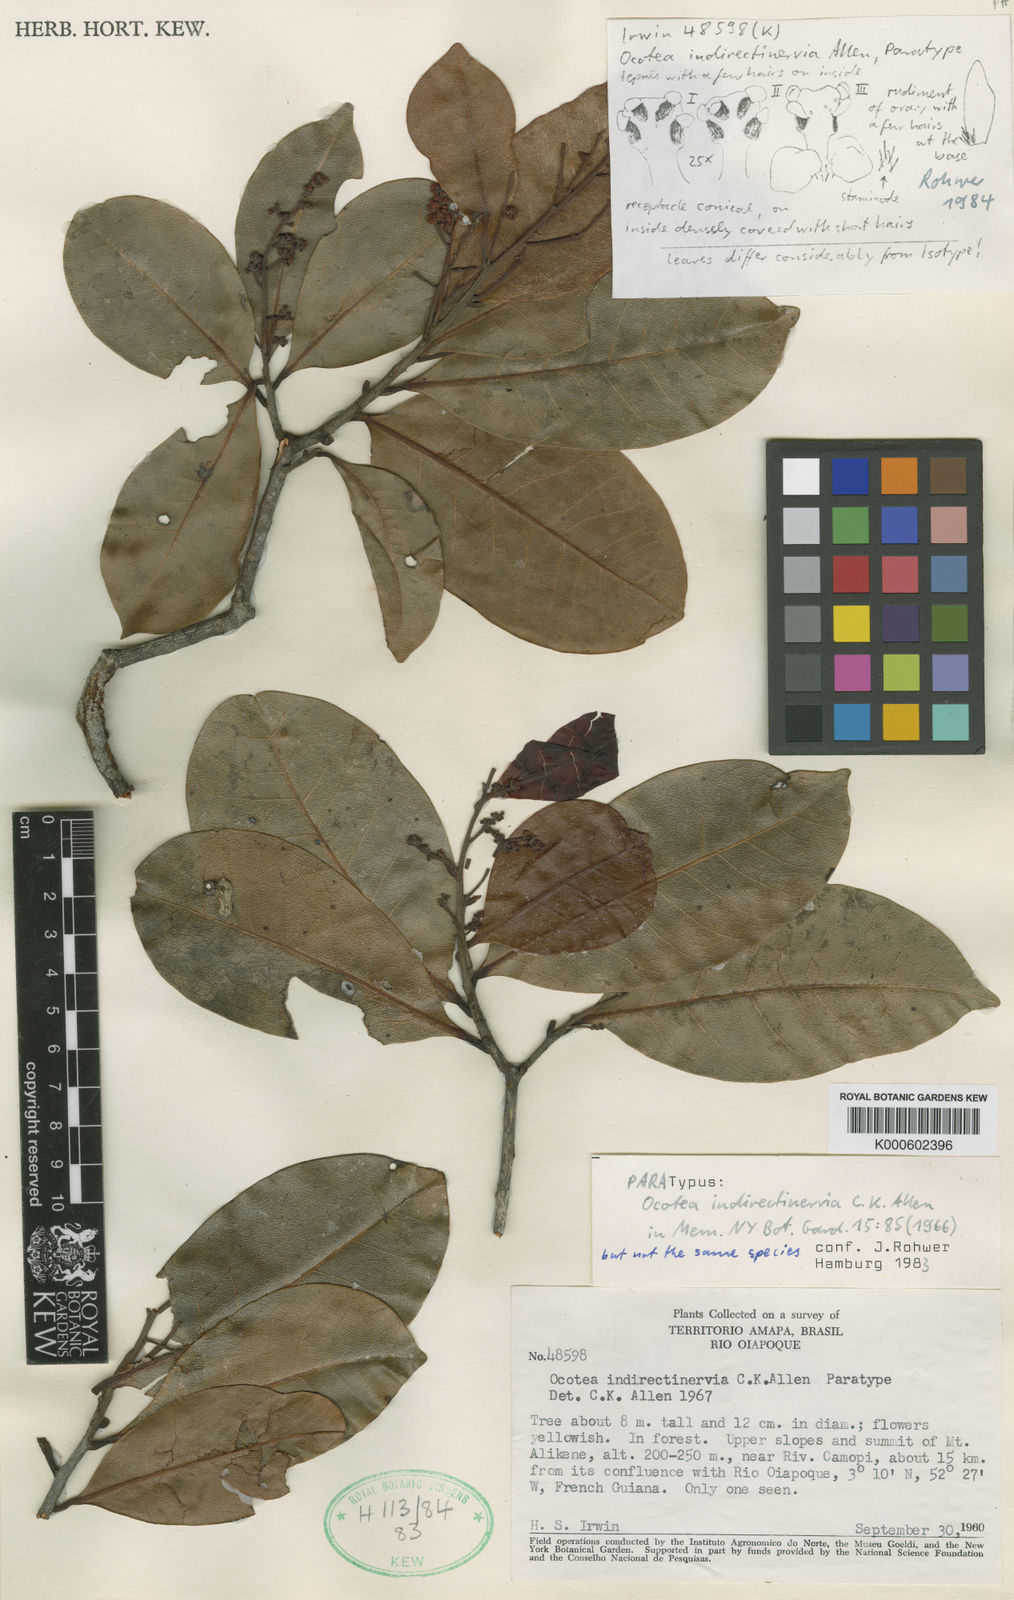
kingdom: Plantae
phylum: Tracheophyta
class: Magnoliopsida
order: Laurales
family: Lauraceae
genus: Ocotea
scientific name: Ocotea indirectinervia
